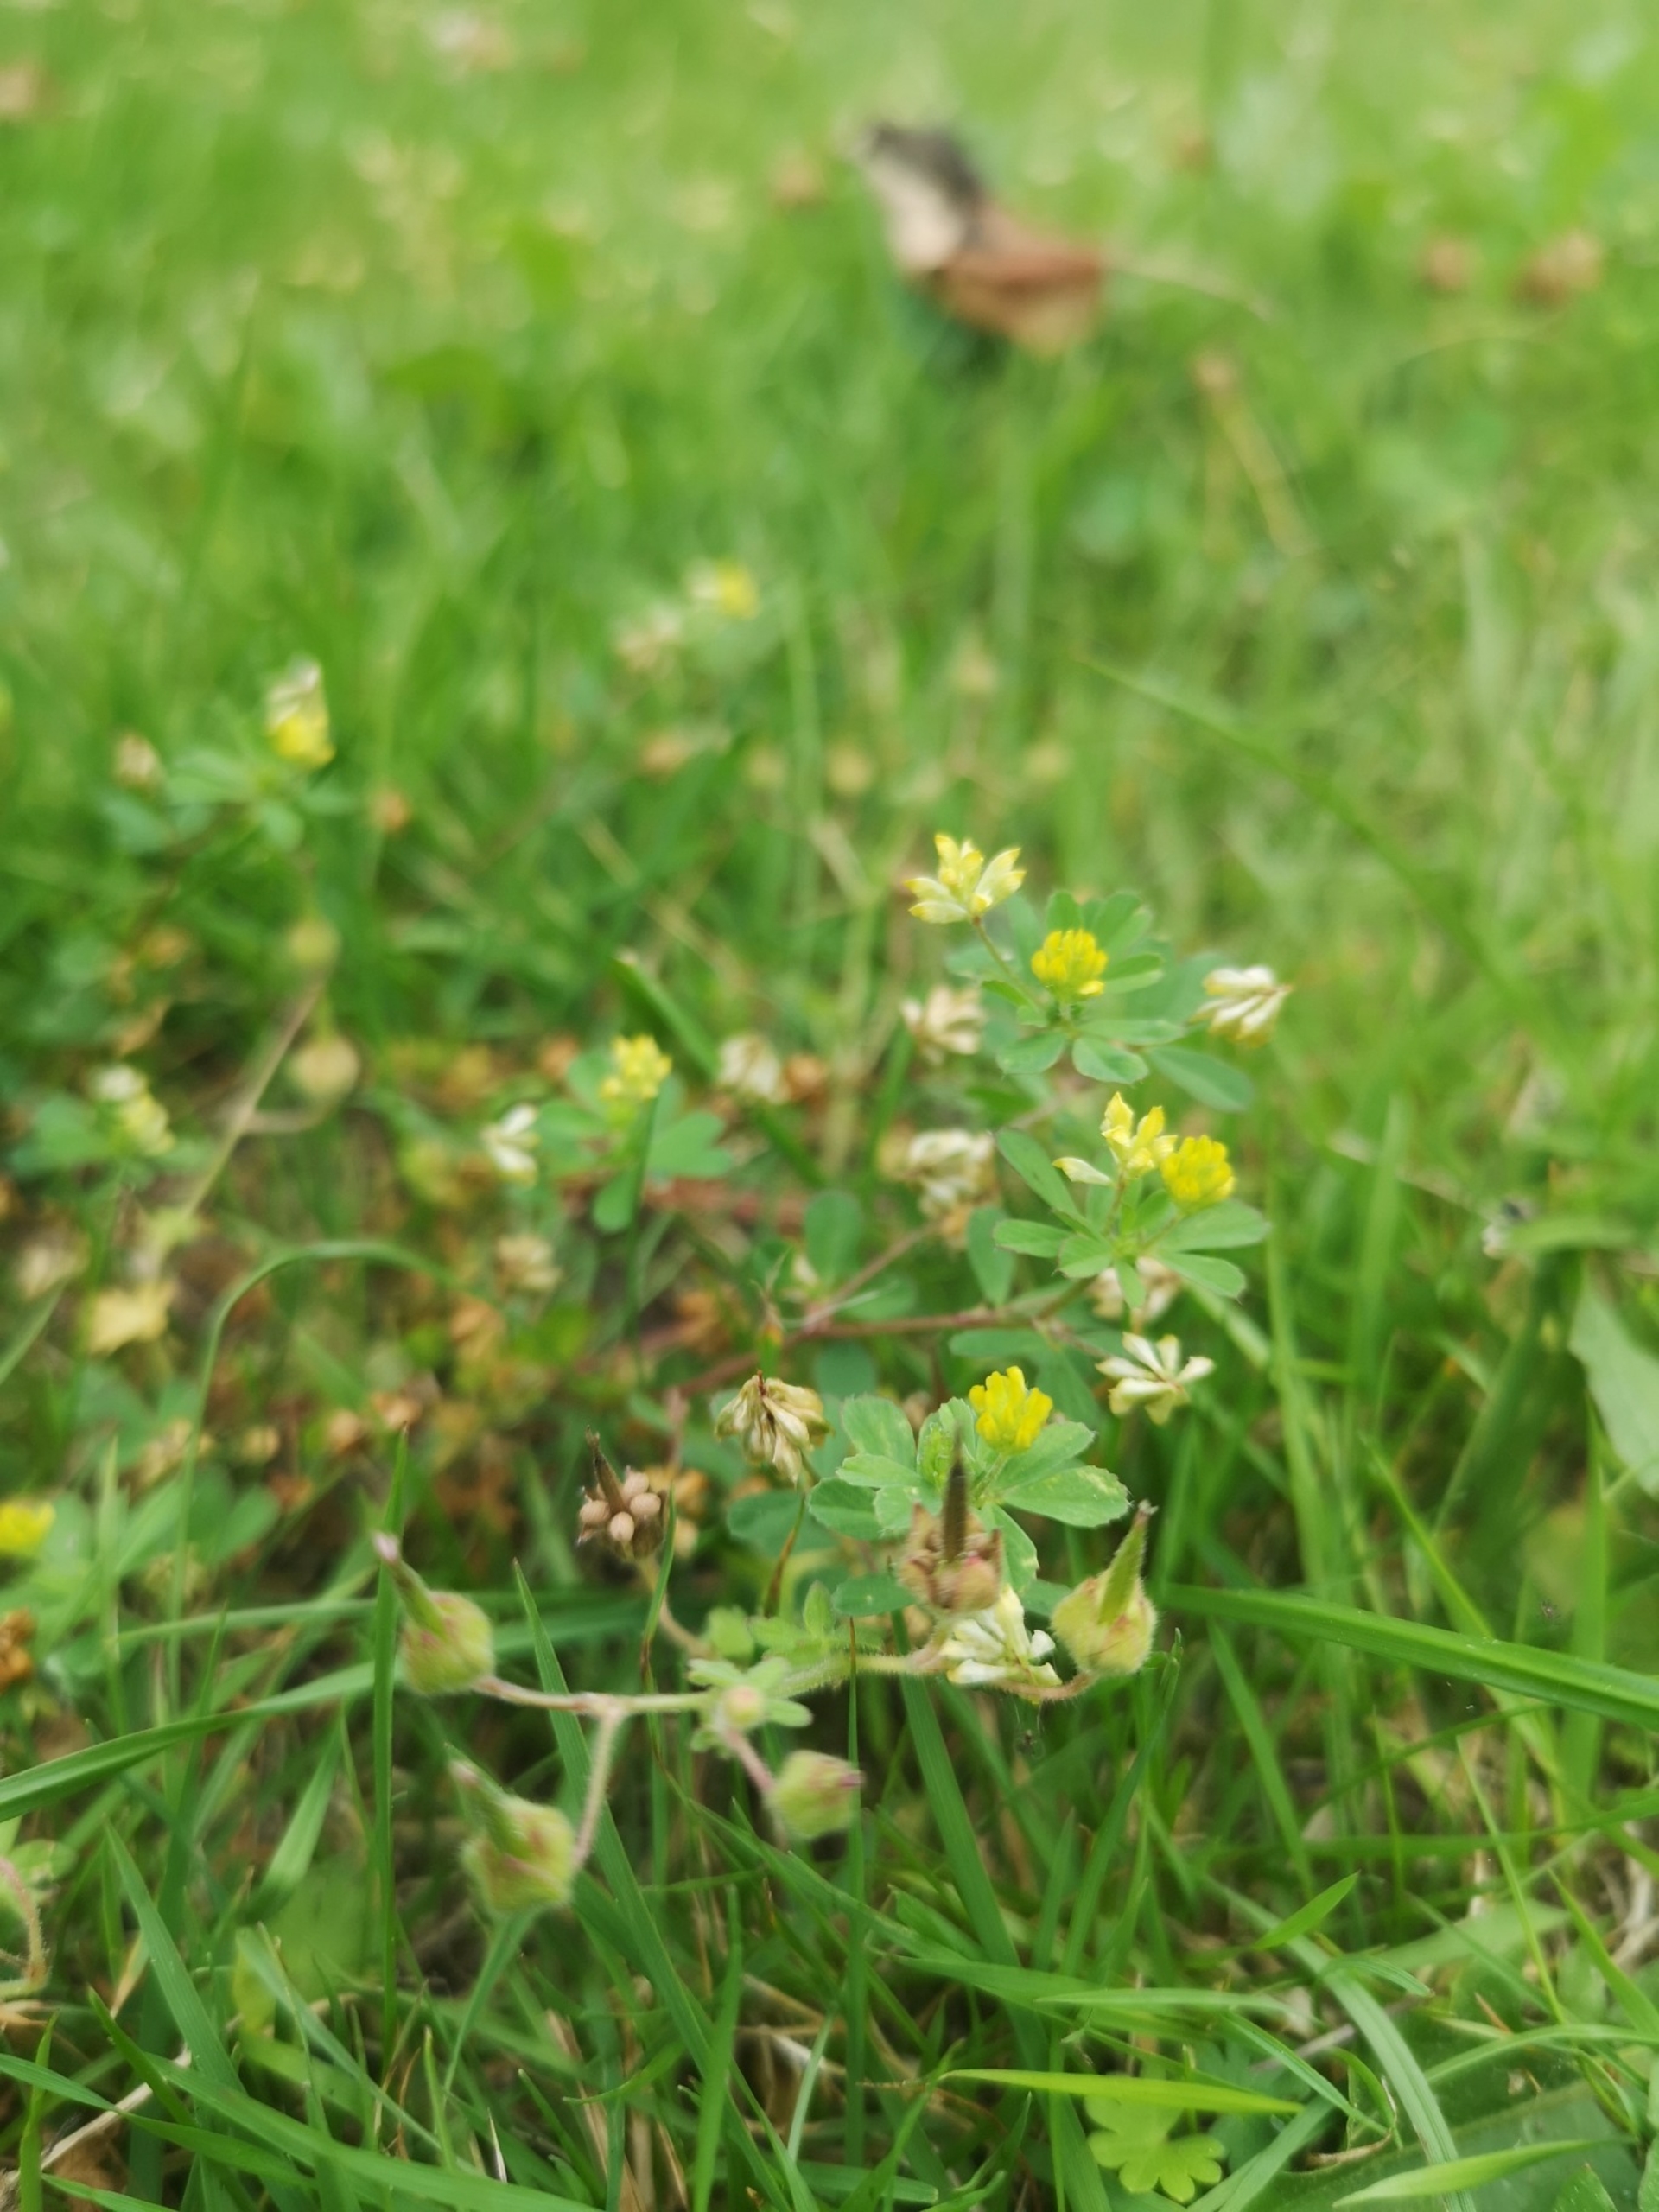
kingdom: Plantae
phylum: Tracheophyta
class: Magnoliopsida
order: Fabales
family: Fabaceae
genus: Trifolium
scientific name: Trifolium dubium
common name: Fin kløver
